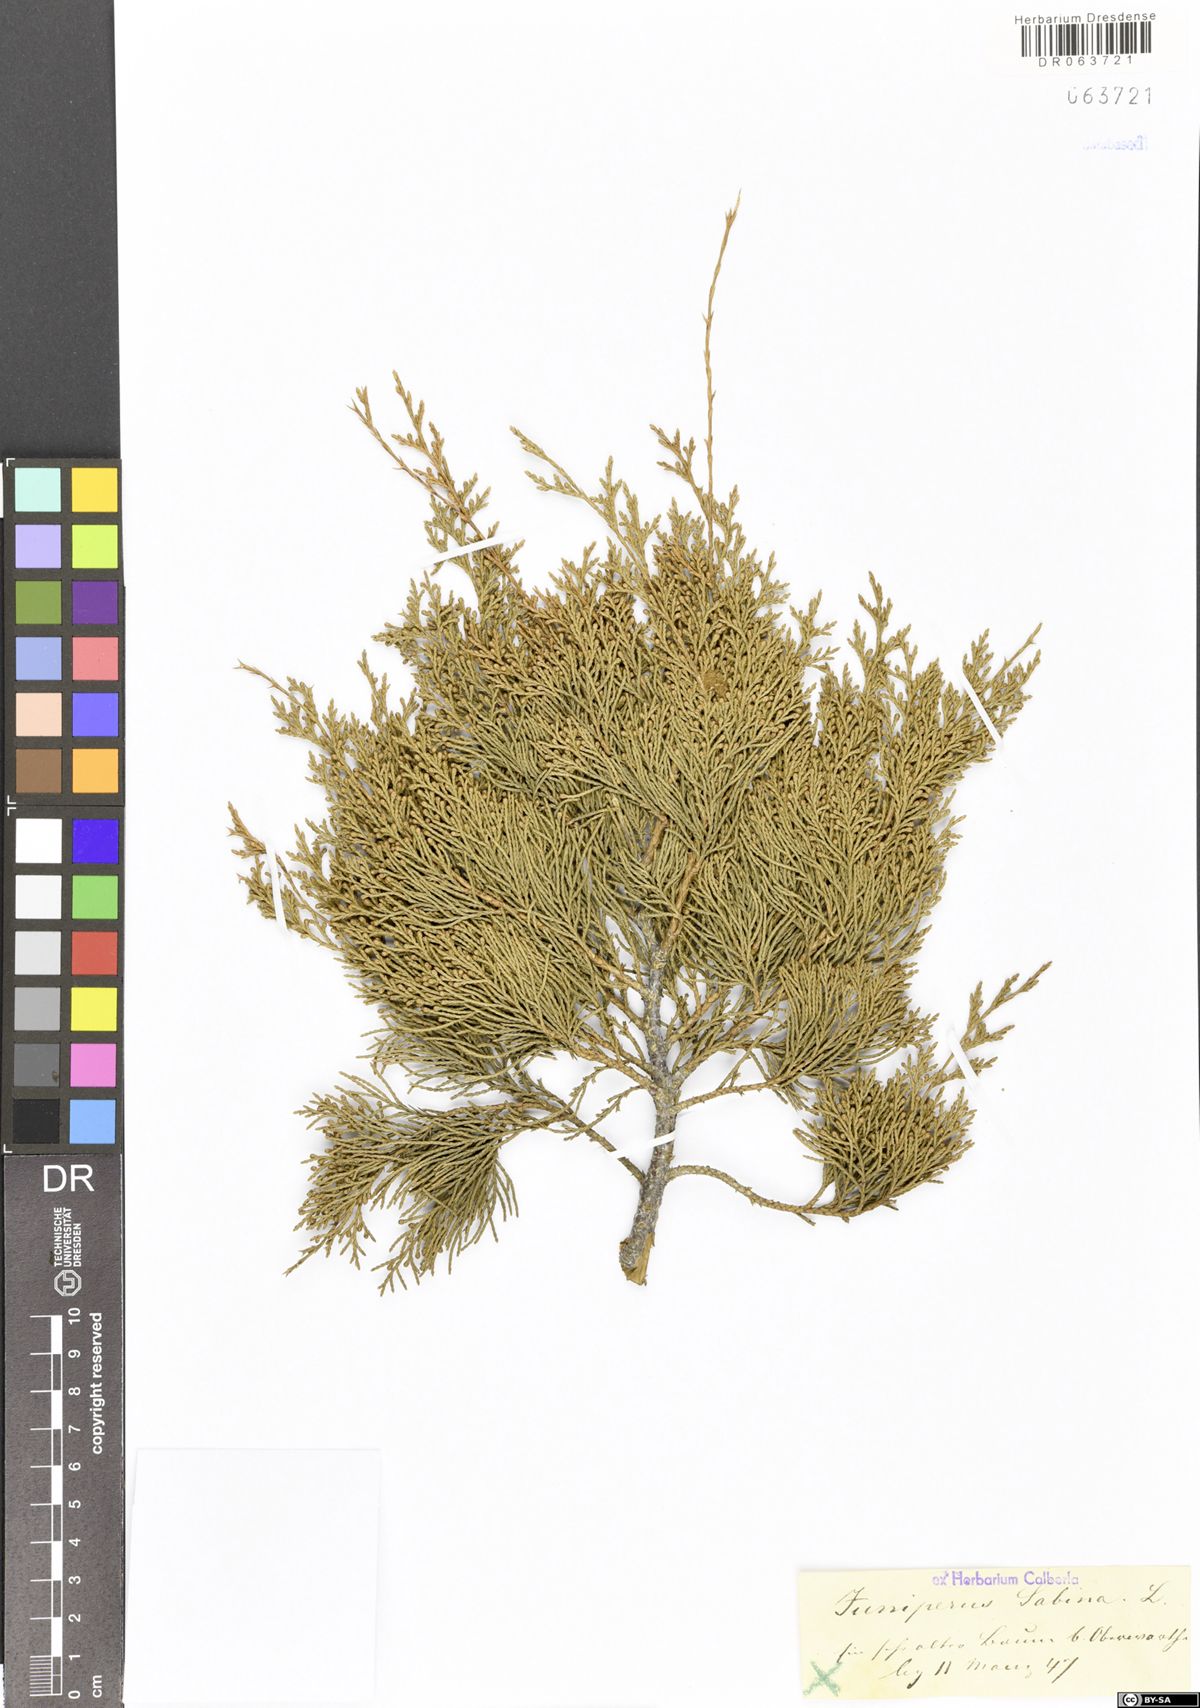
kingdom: Plantae
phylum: Tracheophyta
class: Pinopsida
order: Pinales
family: Cupressaceae
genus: Juniperus
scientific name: Juniperus sabina
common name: Savin
